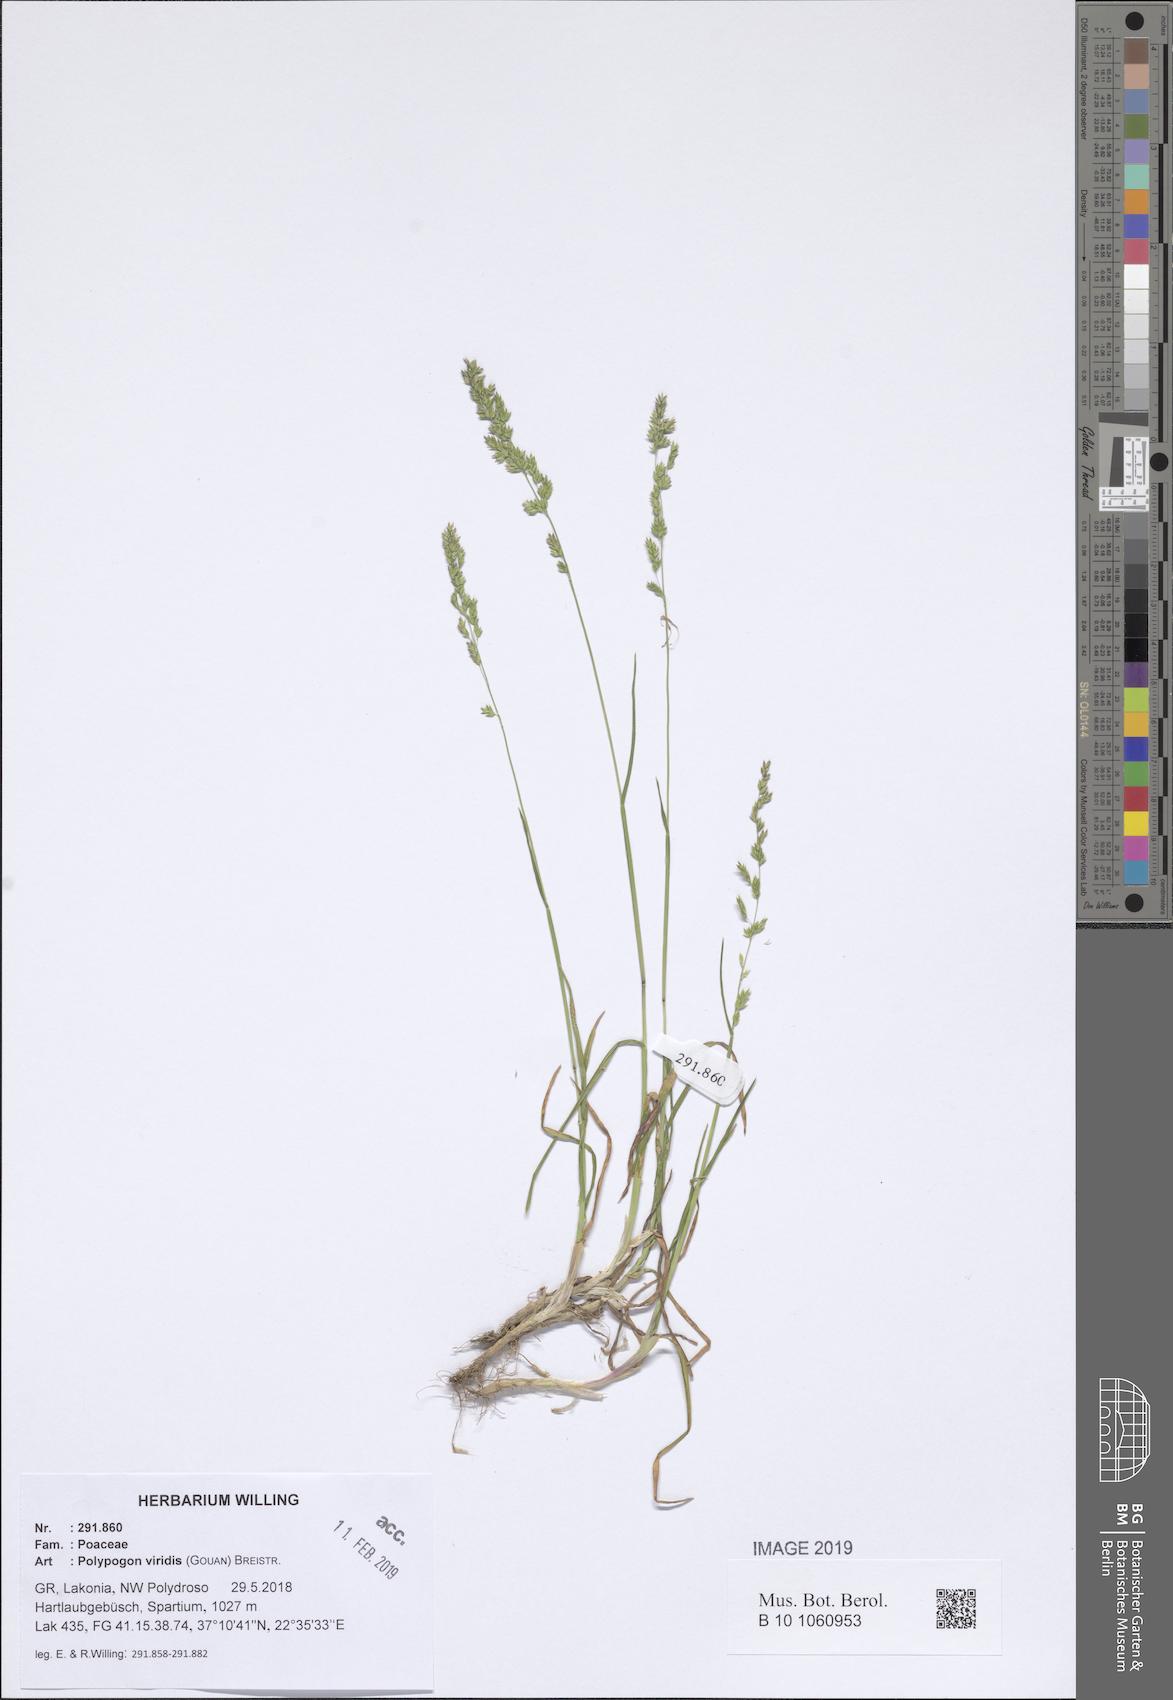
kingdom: Plantae
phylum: Tracheophyta
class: Liliopsida
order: Poales
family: Poaceae
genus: Polypogon
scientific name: Polypogon viridis
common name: Water bent
